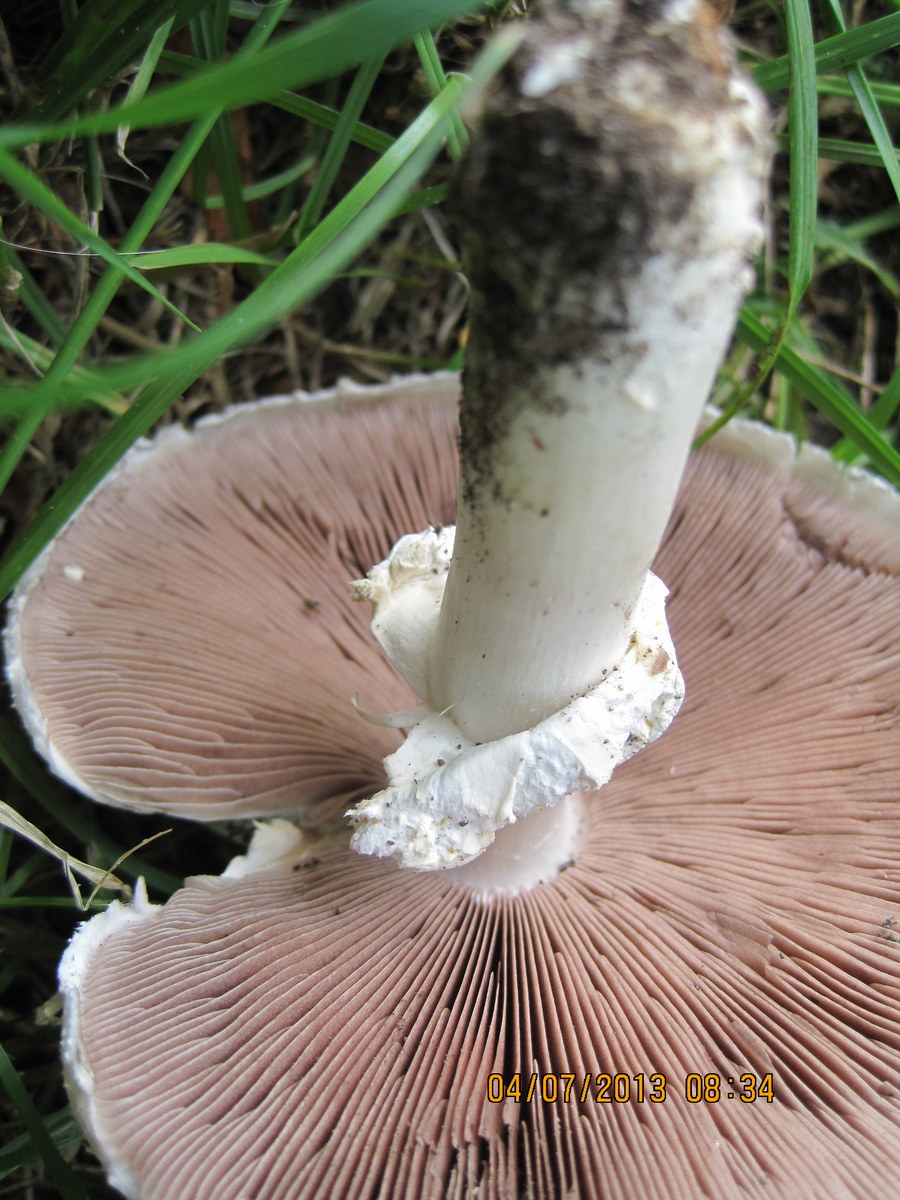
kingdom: Fungi
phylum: Basidiomycota
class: Agaricomycetes
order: Agaricales
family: Agaricaceae
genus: Agaricus
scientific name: Agaricus arvensis
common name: ager-champignon
